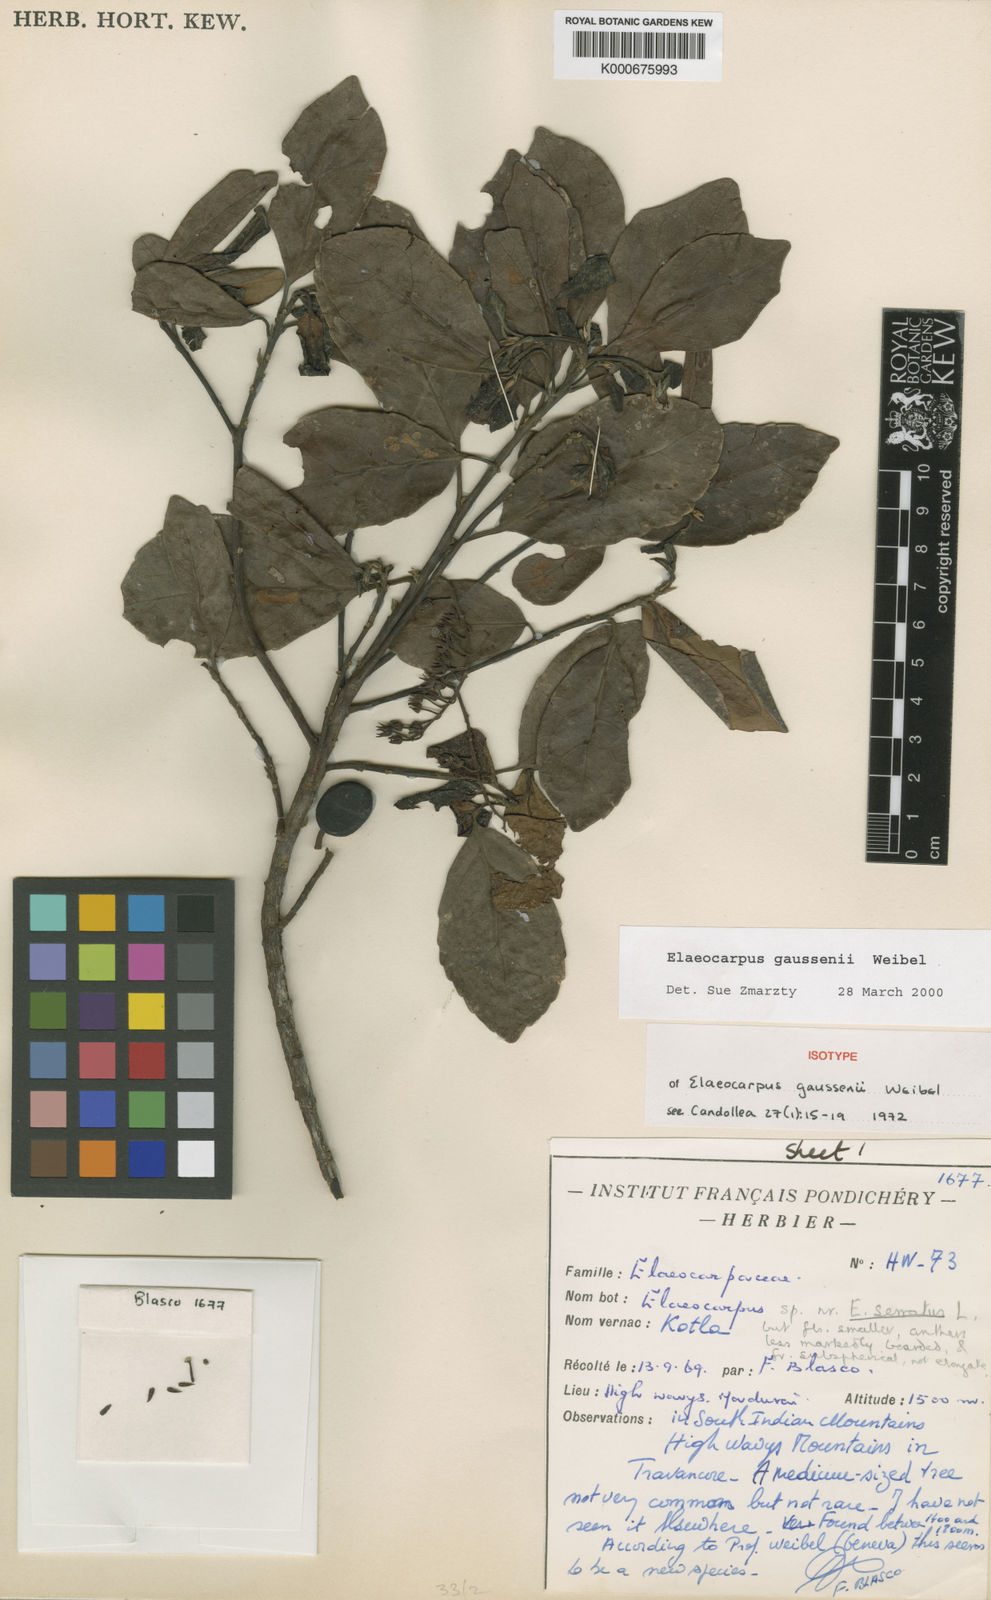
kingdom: Plantae
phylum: Tracheophyta
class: Magnoliopsida
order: Oxalidales
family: Elaeocarpaceae
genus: Elaeocarpus
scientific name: Elaeocarpus gaussenii
